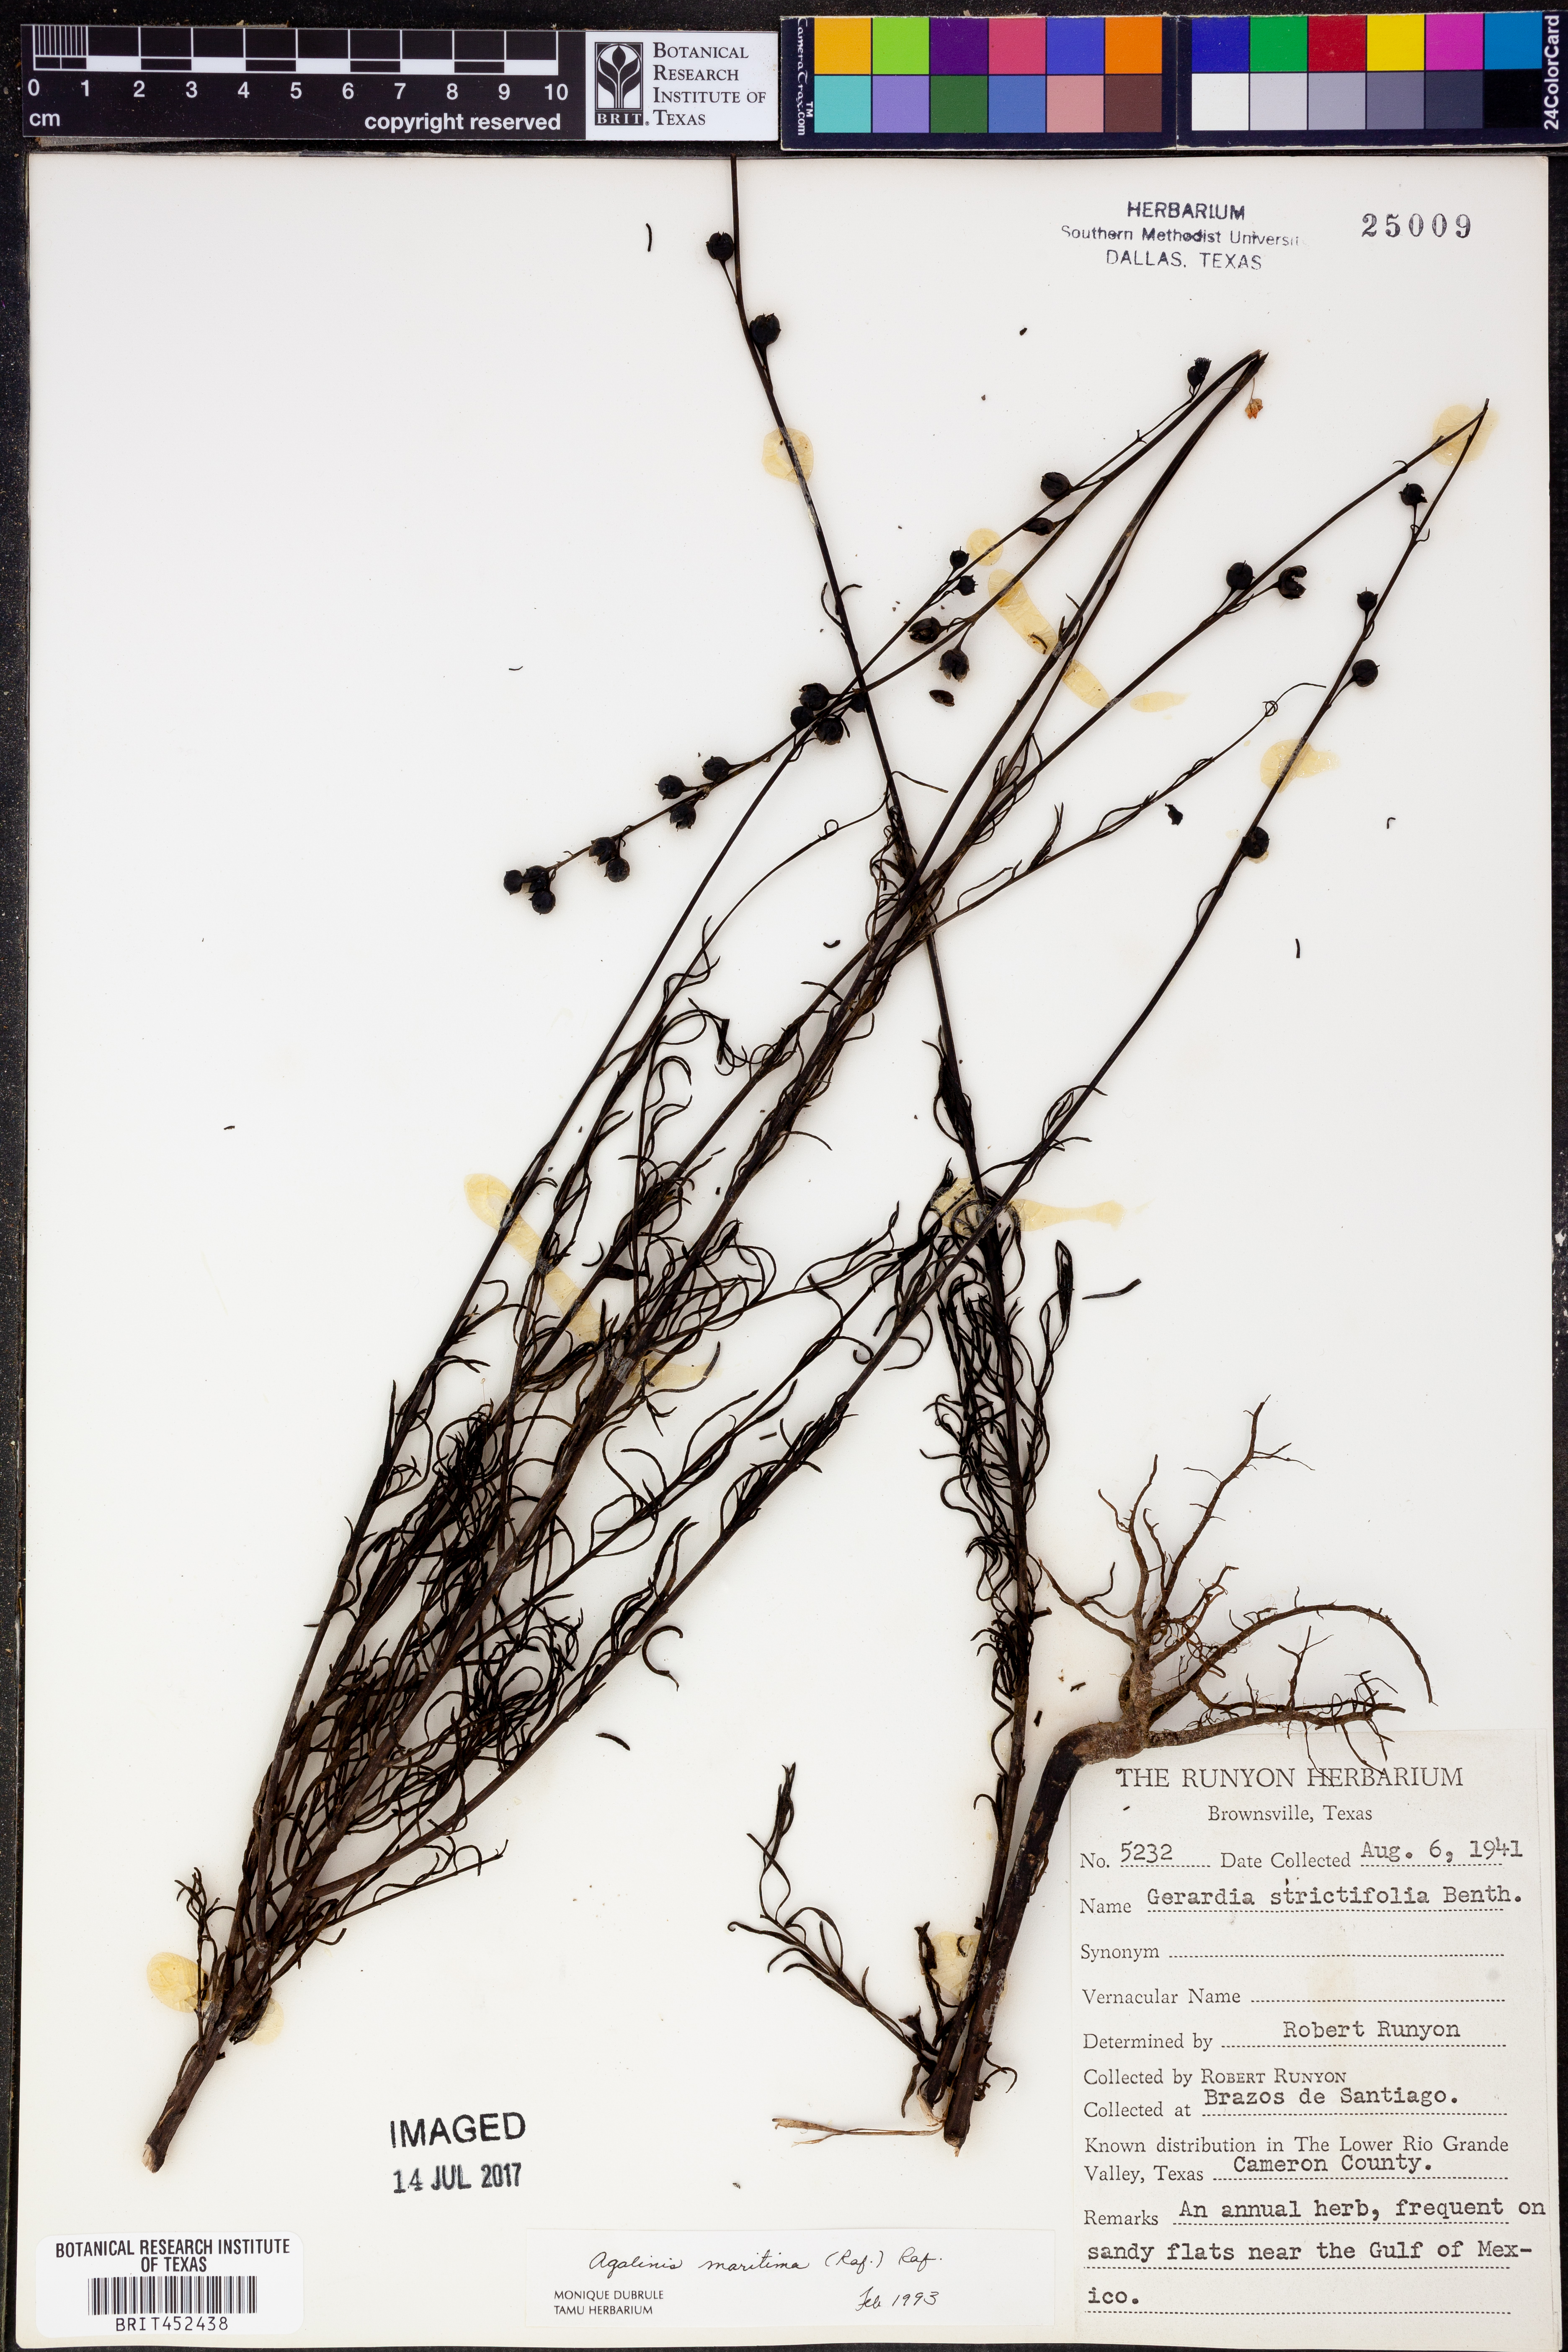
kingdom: Plantae
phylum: Tracheophyta
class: Magnoliopsida
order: Lamiales
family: Orobanchaceae
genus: Agalinis
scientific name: Agalinis maritima
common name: Saltmarsh agalinis
